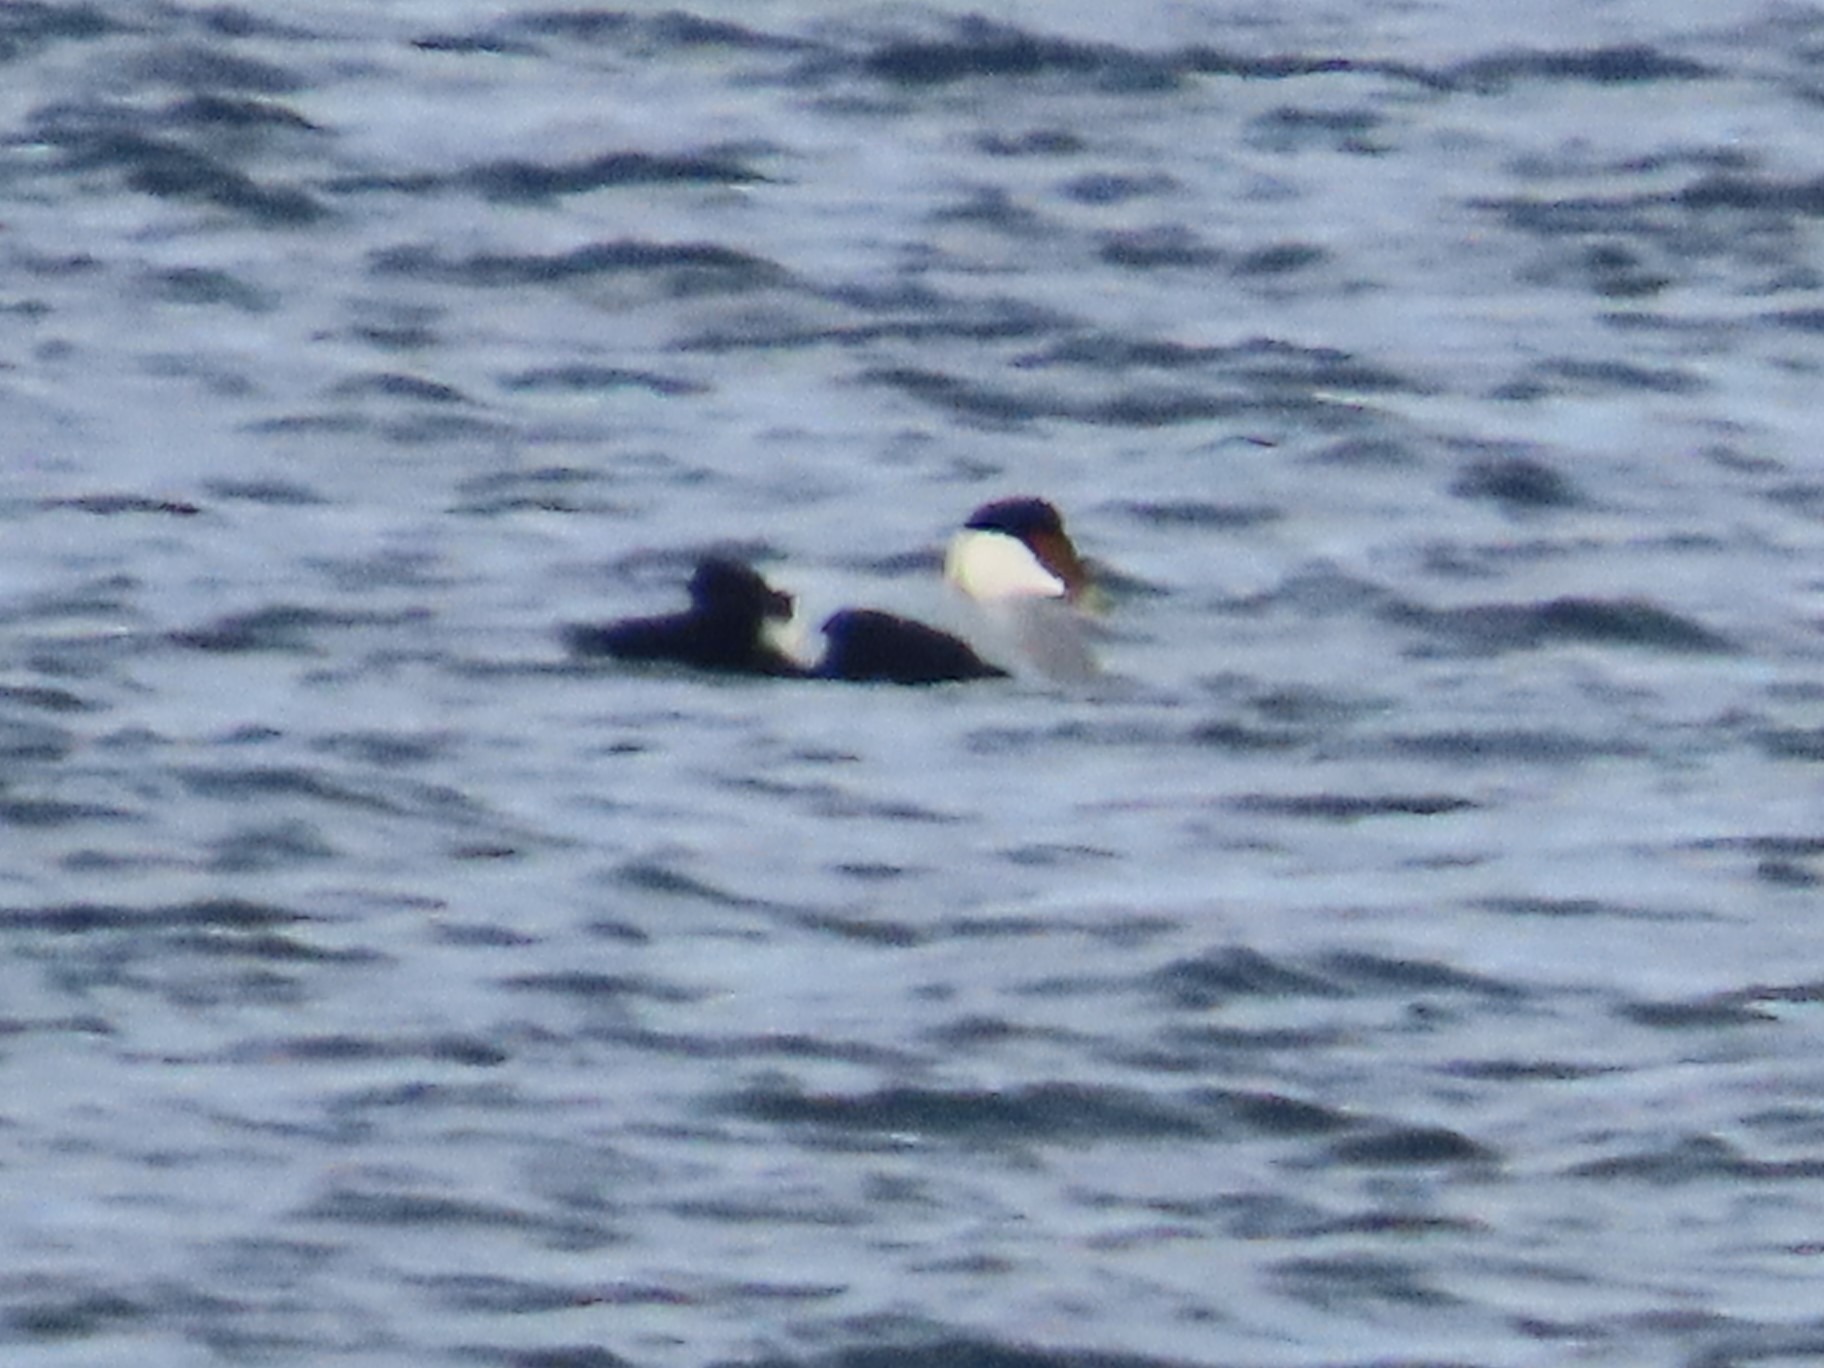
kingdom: Animalia
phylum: Chordata
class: Aves
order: Anseriformes
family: Anatidae
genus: Somateria
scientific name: Somateria mollissima
